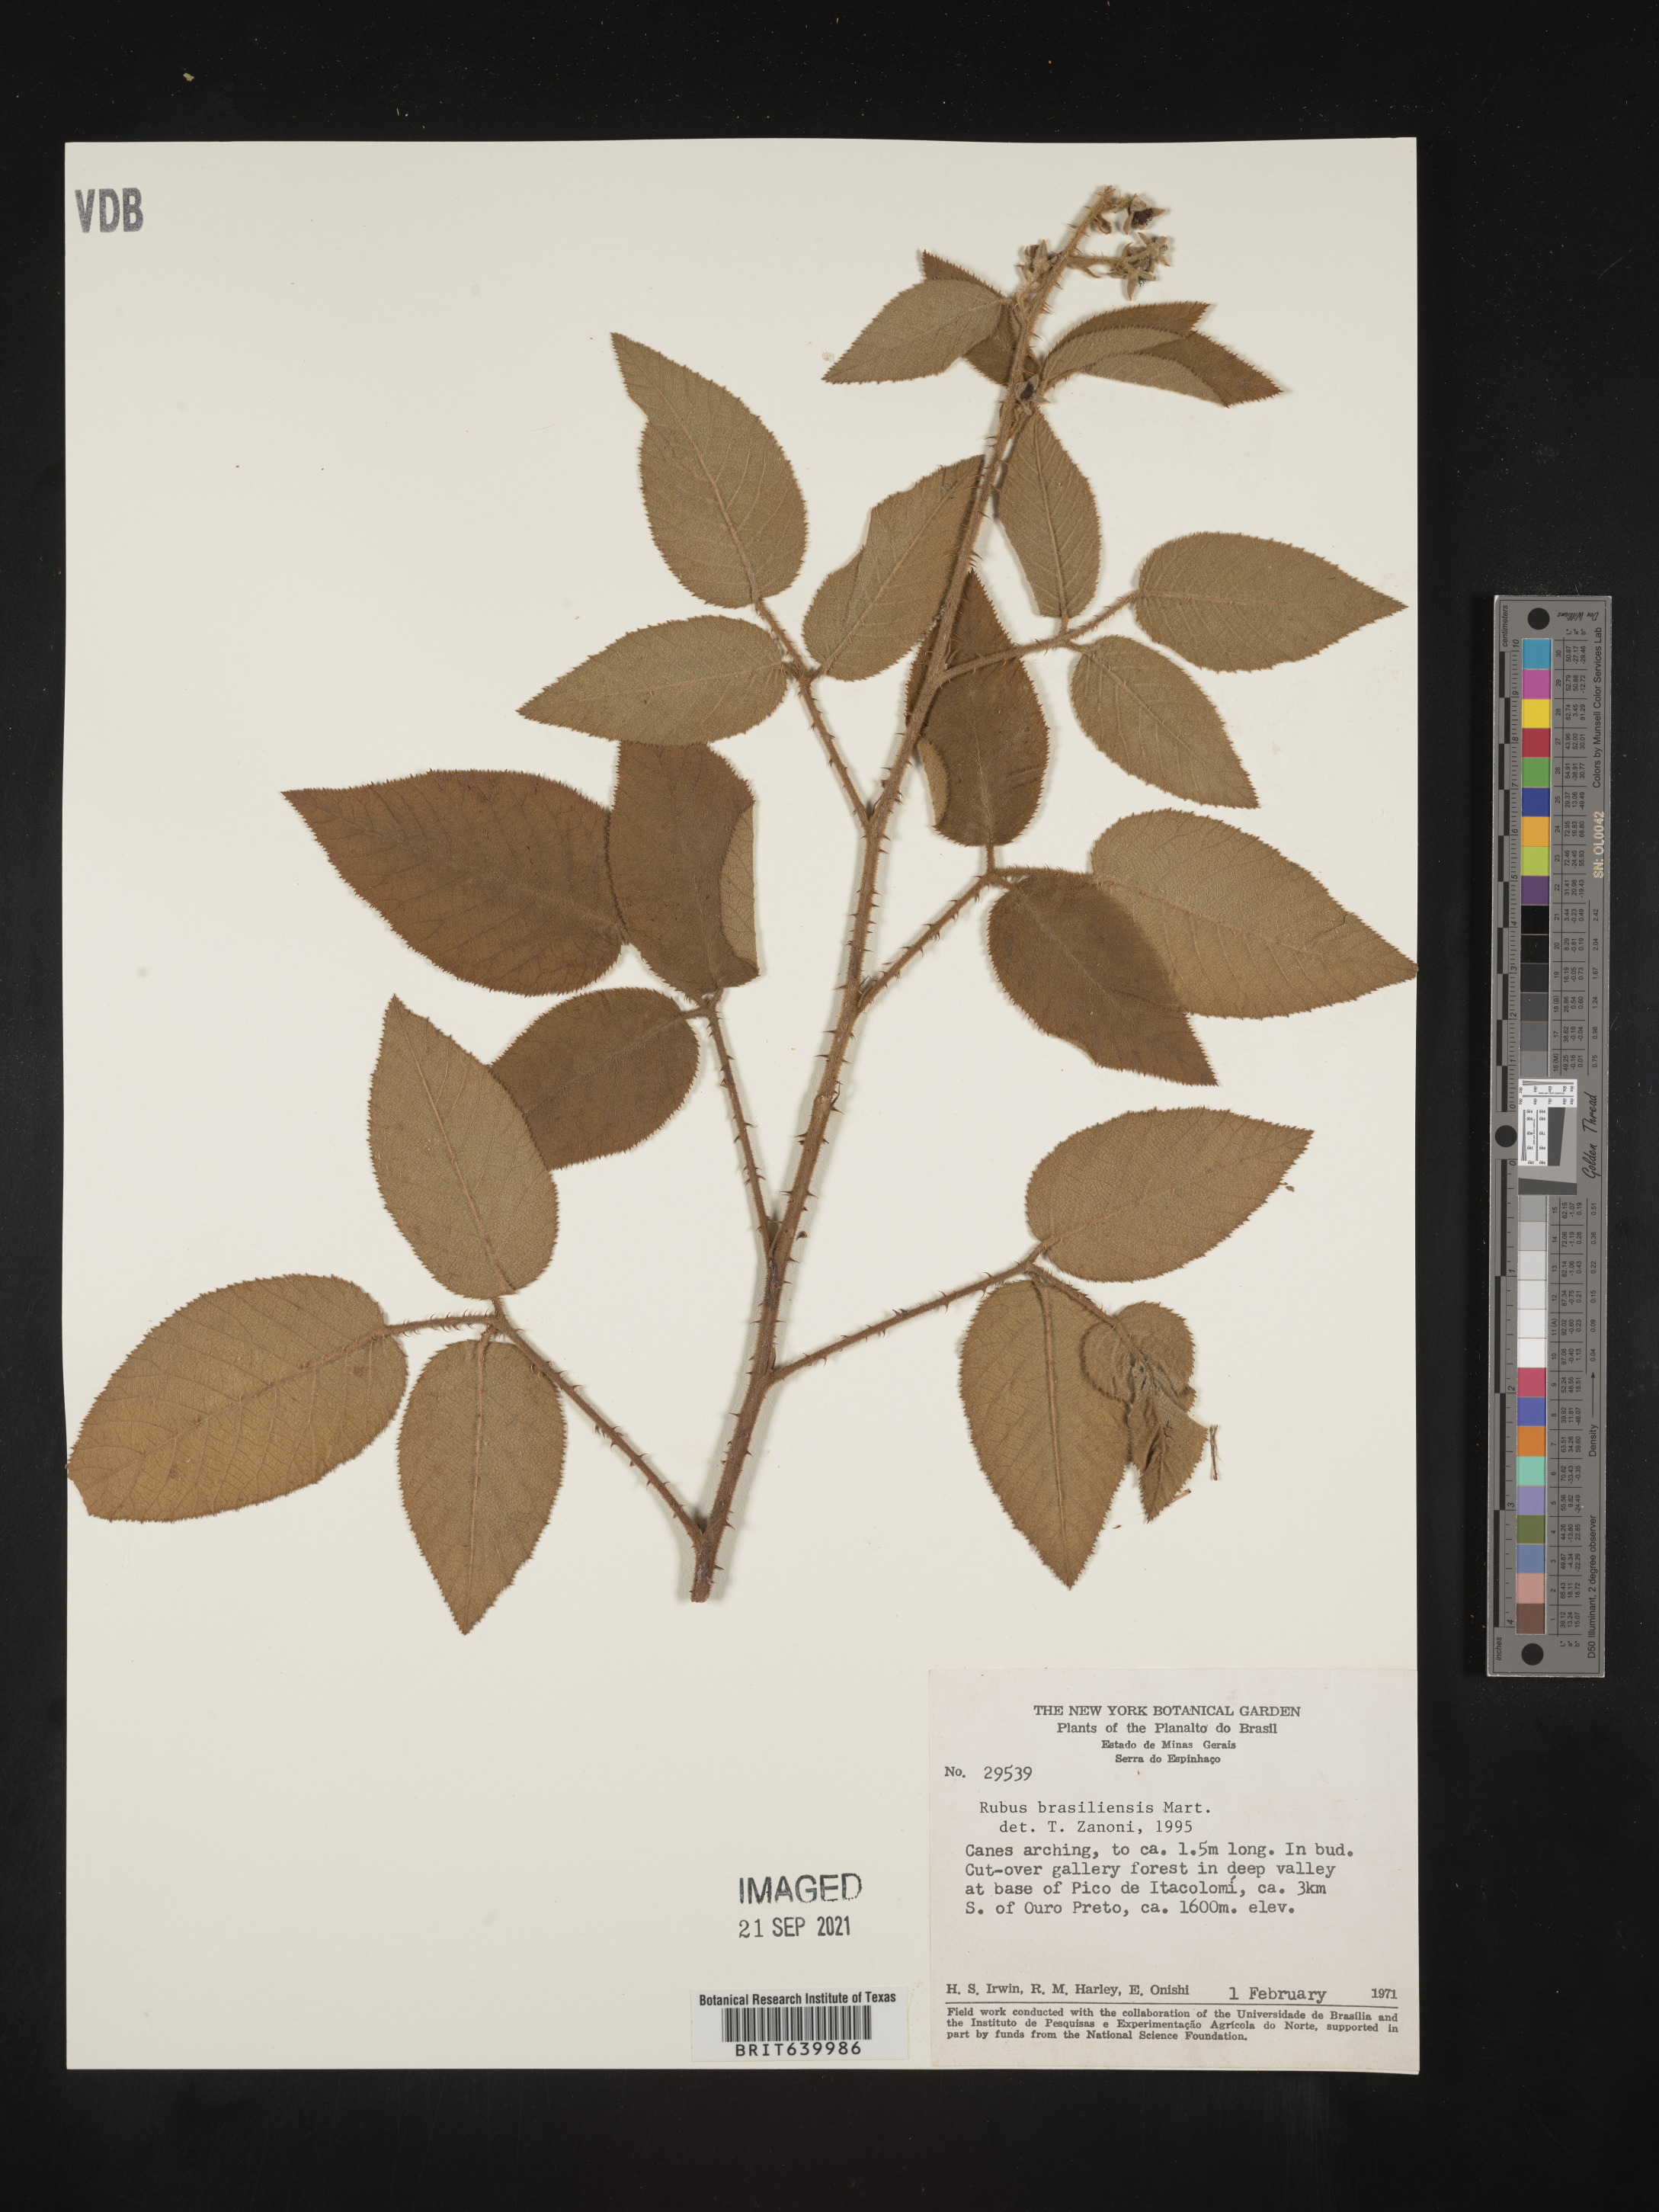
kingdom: Plantae
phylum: Tracheophyta
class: Magnoliopsida
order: Rosales
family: Rosaceae
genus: Rubus
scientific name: Rubus
